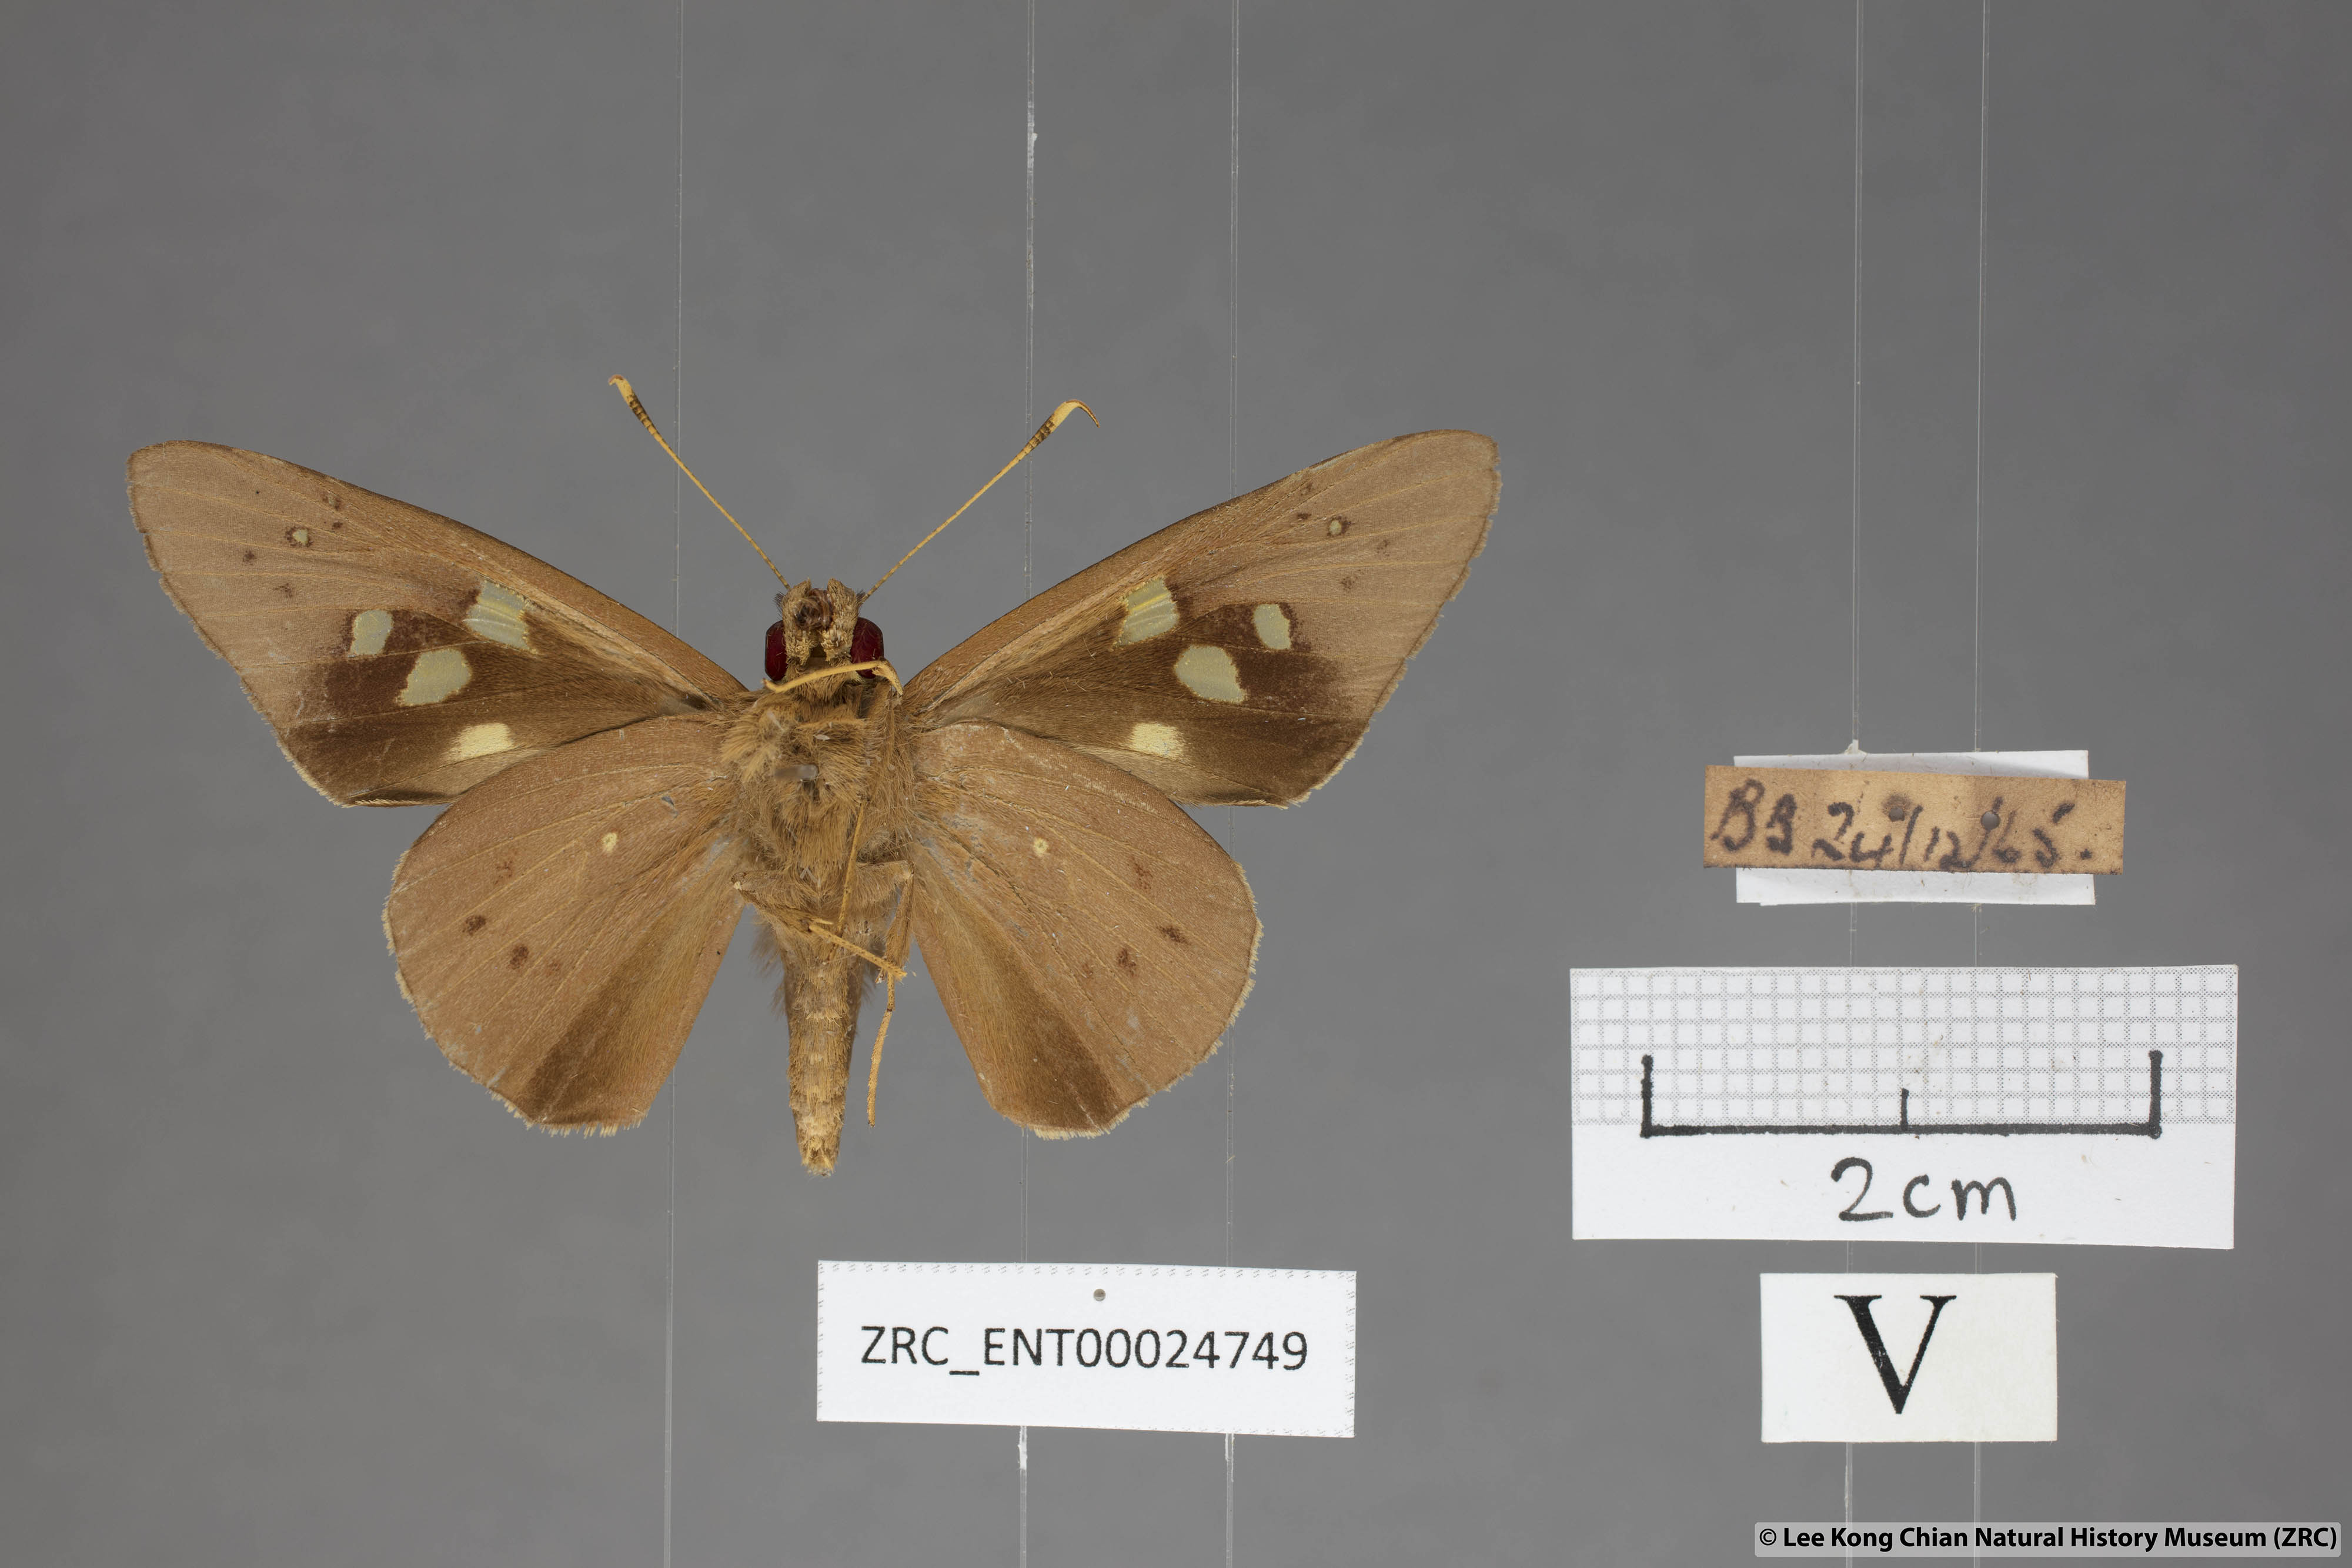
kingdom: Animalia
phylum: Arthropoda
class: Insecta
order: Lepidoptera
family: Hesperiidae
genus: Hidari
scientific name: Hidari irava
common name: Coconut skipper
